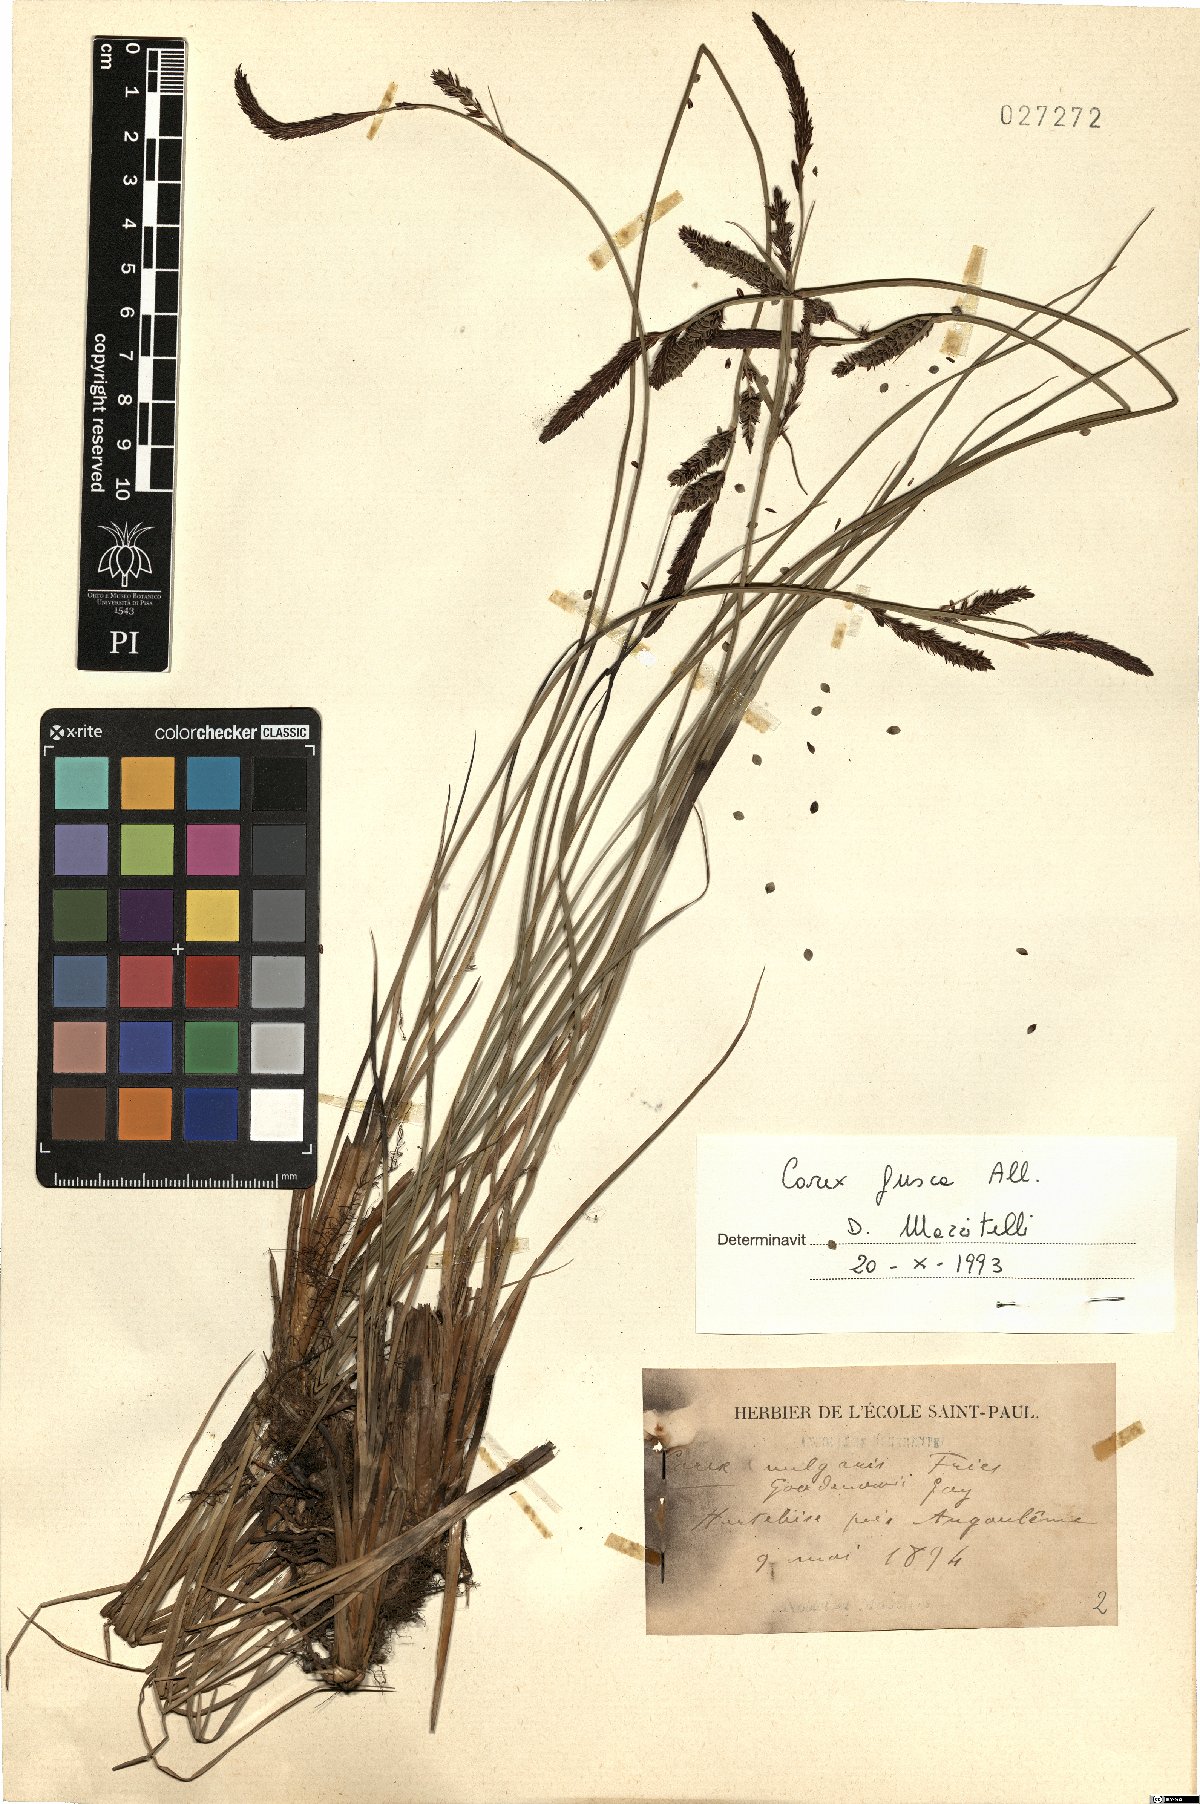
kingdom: Plantae
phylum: Tracheophyta
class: Liliopsida
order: Poales
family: Cyperaceae
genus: Carex
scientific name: Carex nigra
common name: Common sedge
